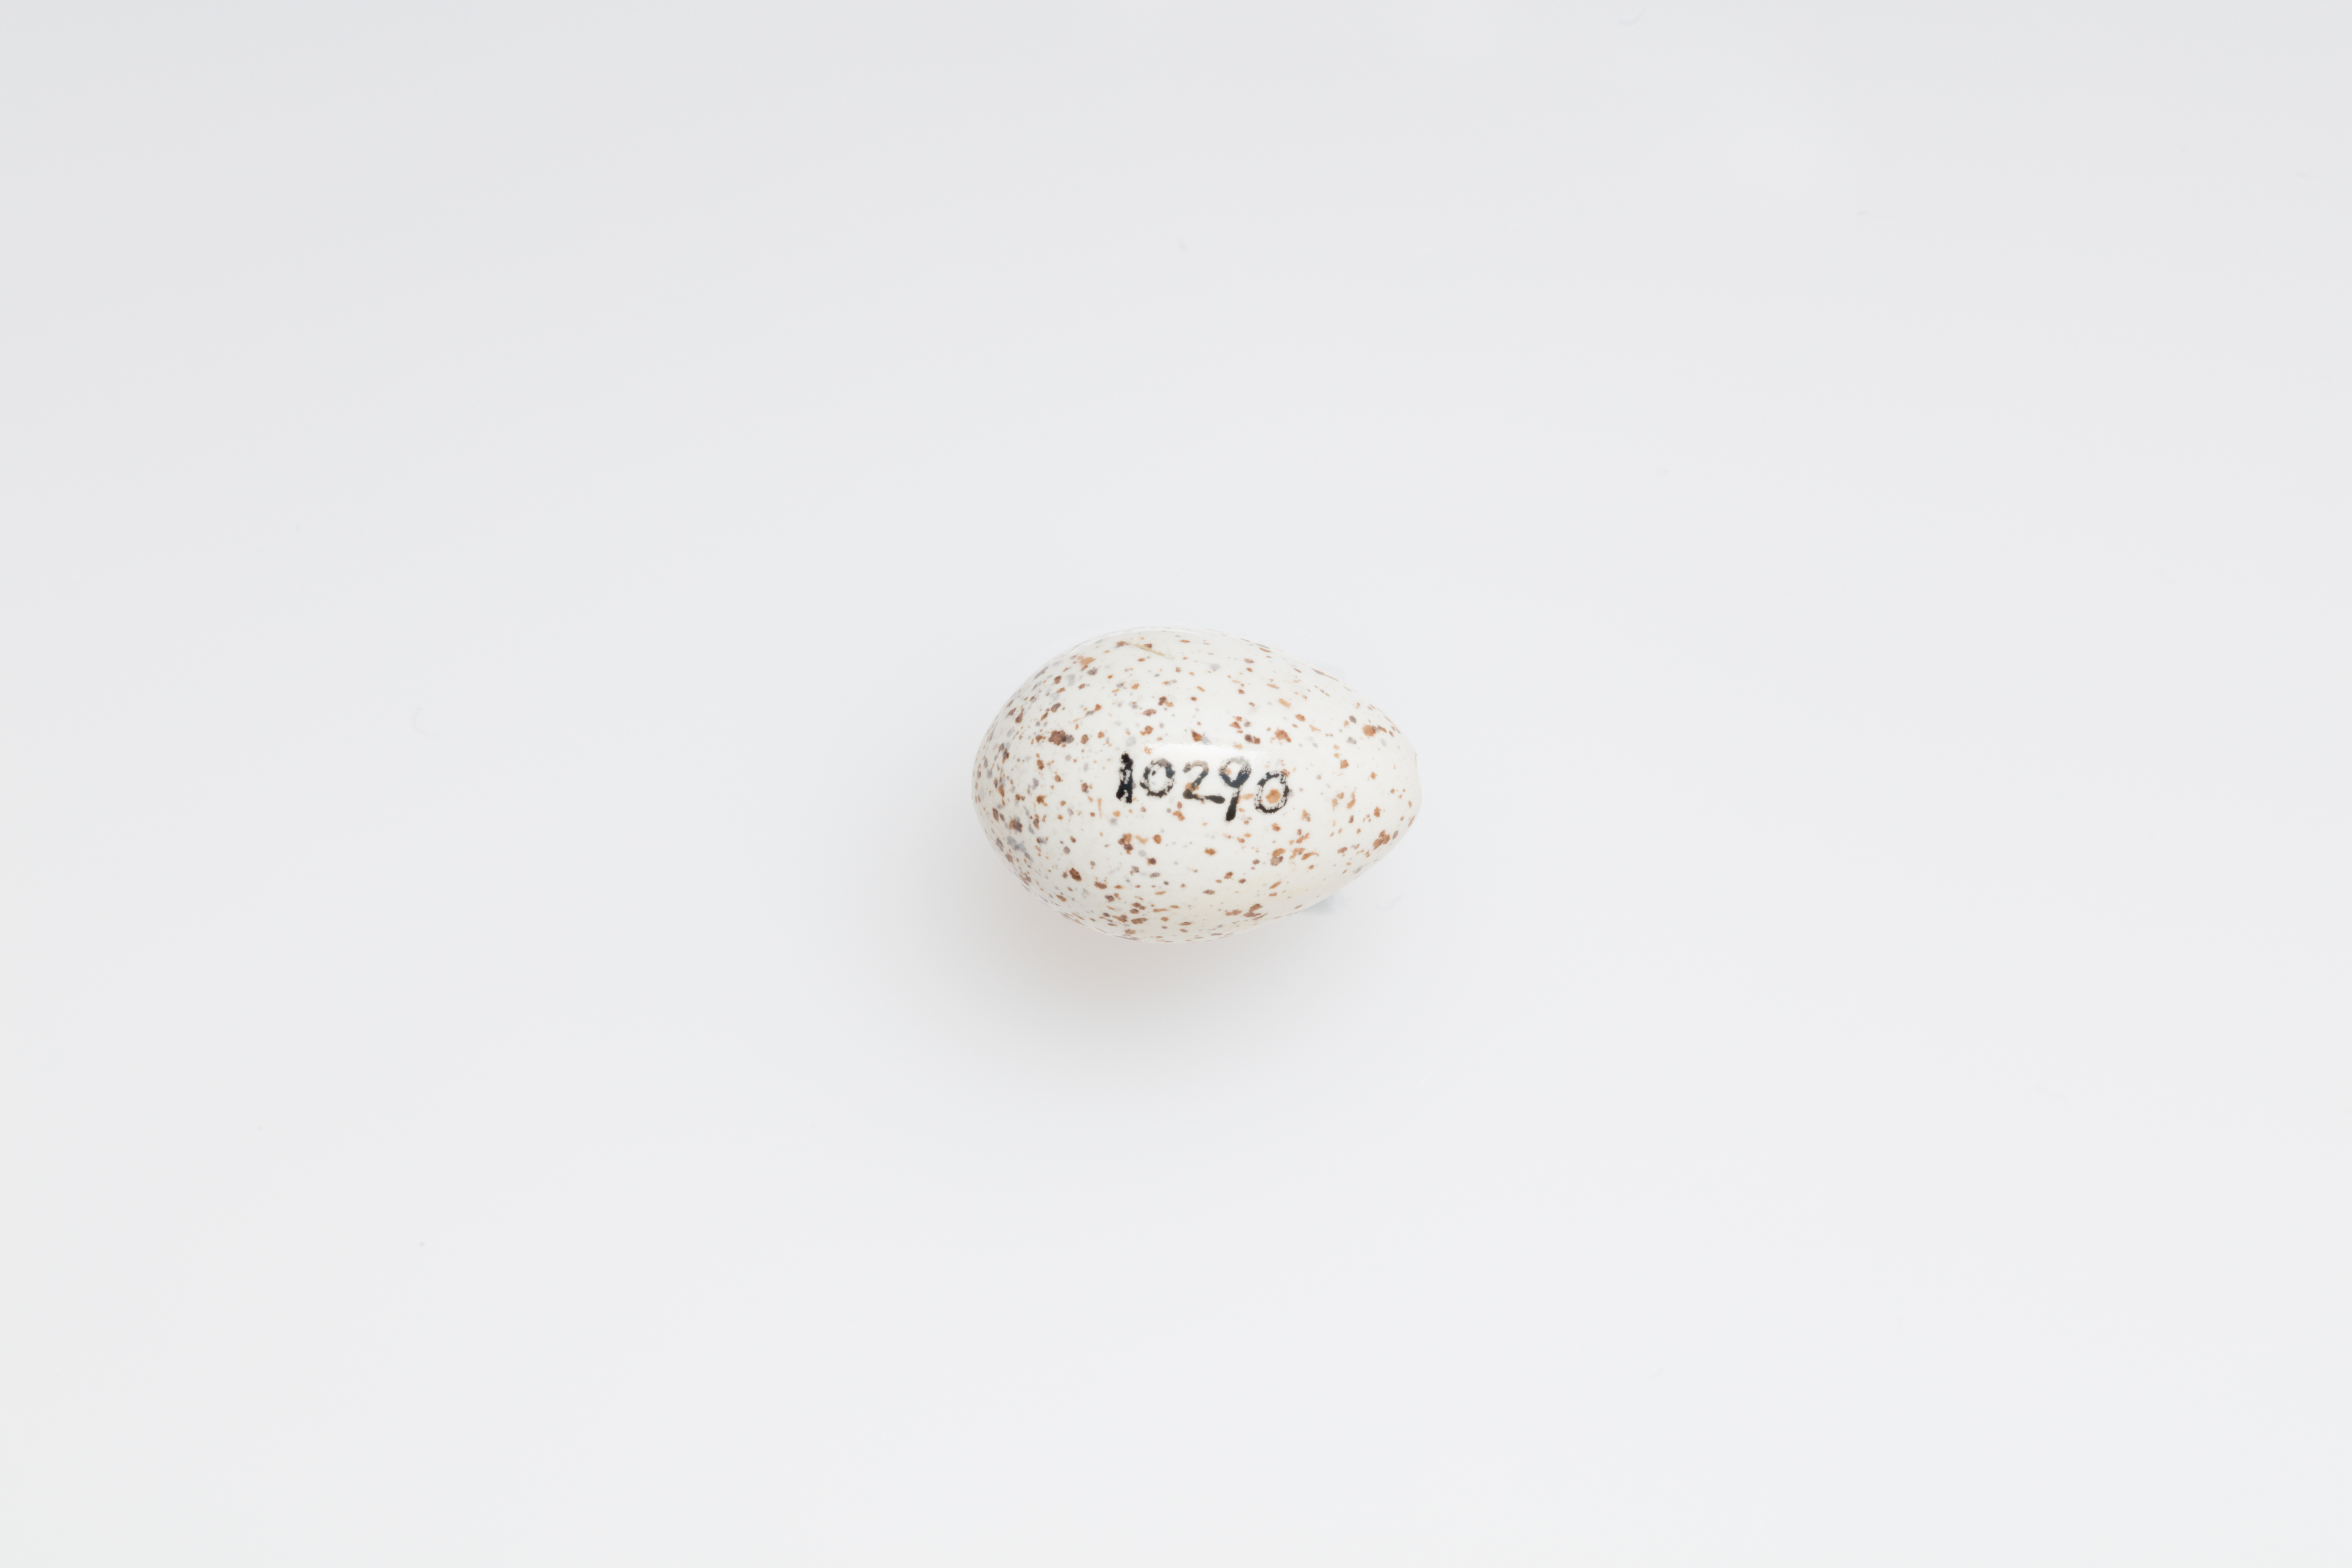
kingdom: Animalia
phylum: Chordata
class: Aves
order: Passeriformes
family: Hirundinidae
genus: Hirundo
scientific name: Hirundo neoxena
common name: Welcome swallow
